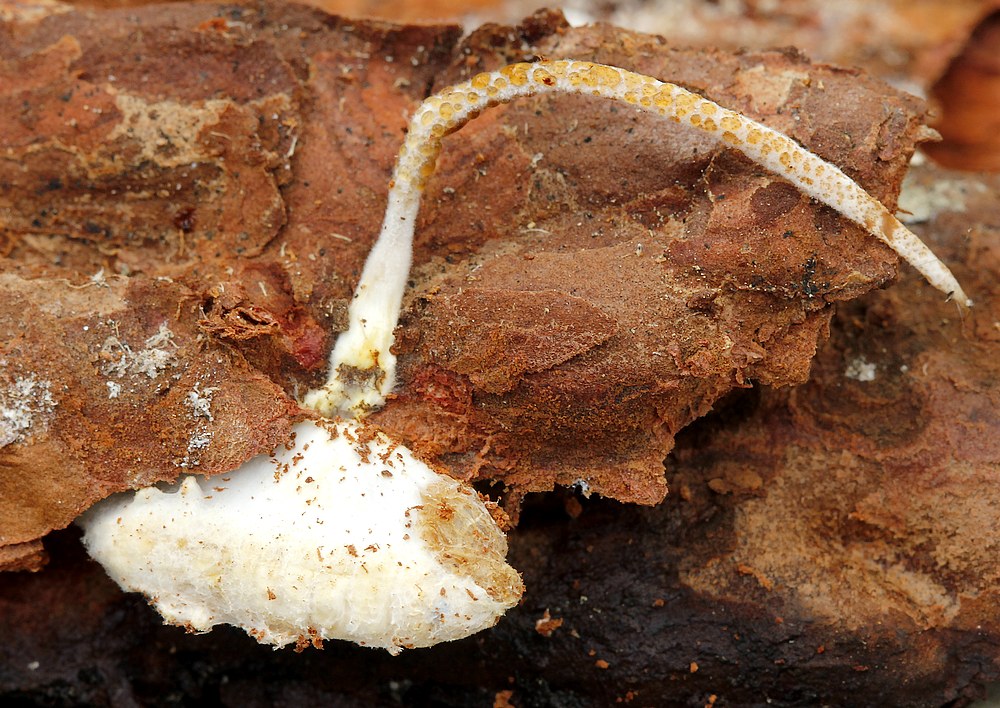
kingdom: Fungi
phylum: Ascomycota
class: Sordariomycetes
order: Hypocreales
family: Cordycipitaceae
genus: Samsoniella
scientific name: Samsoniella hepiali
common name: melet snyltekølle
